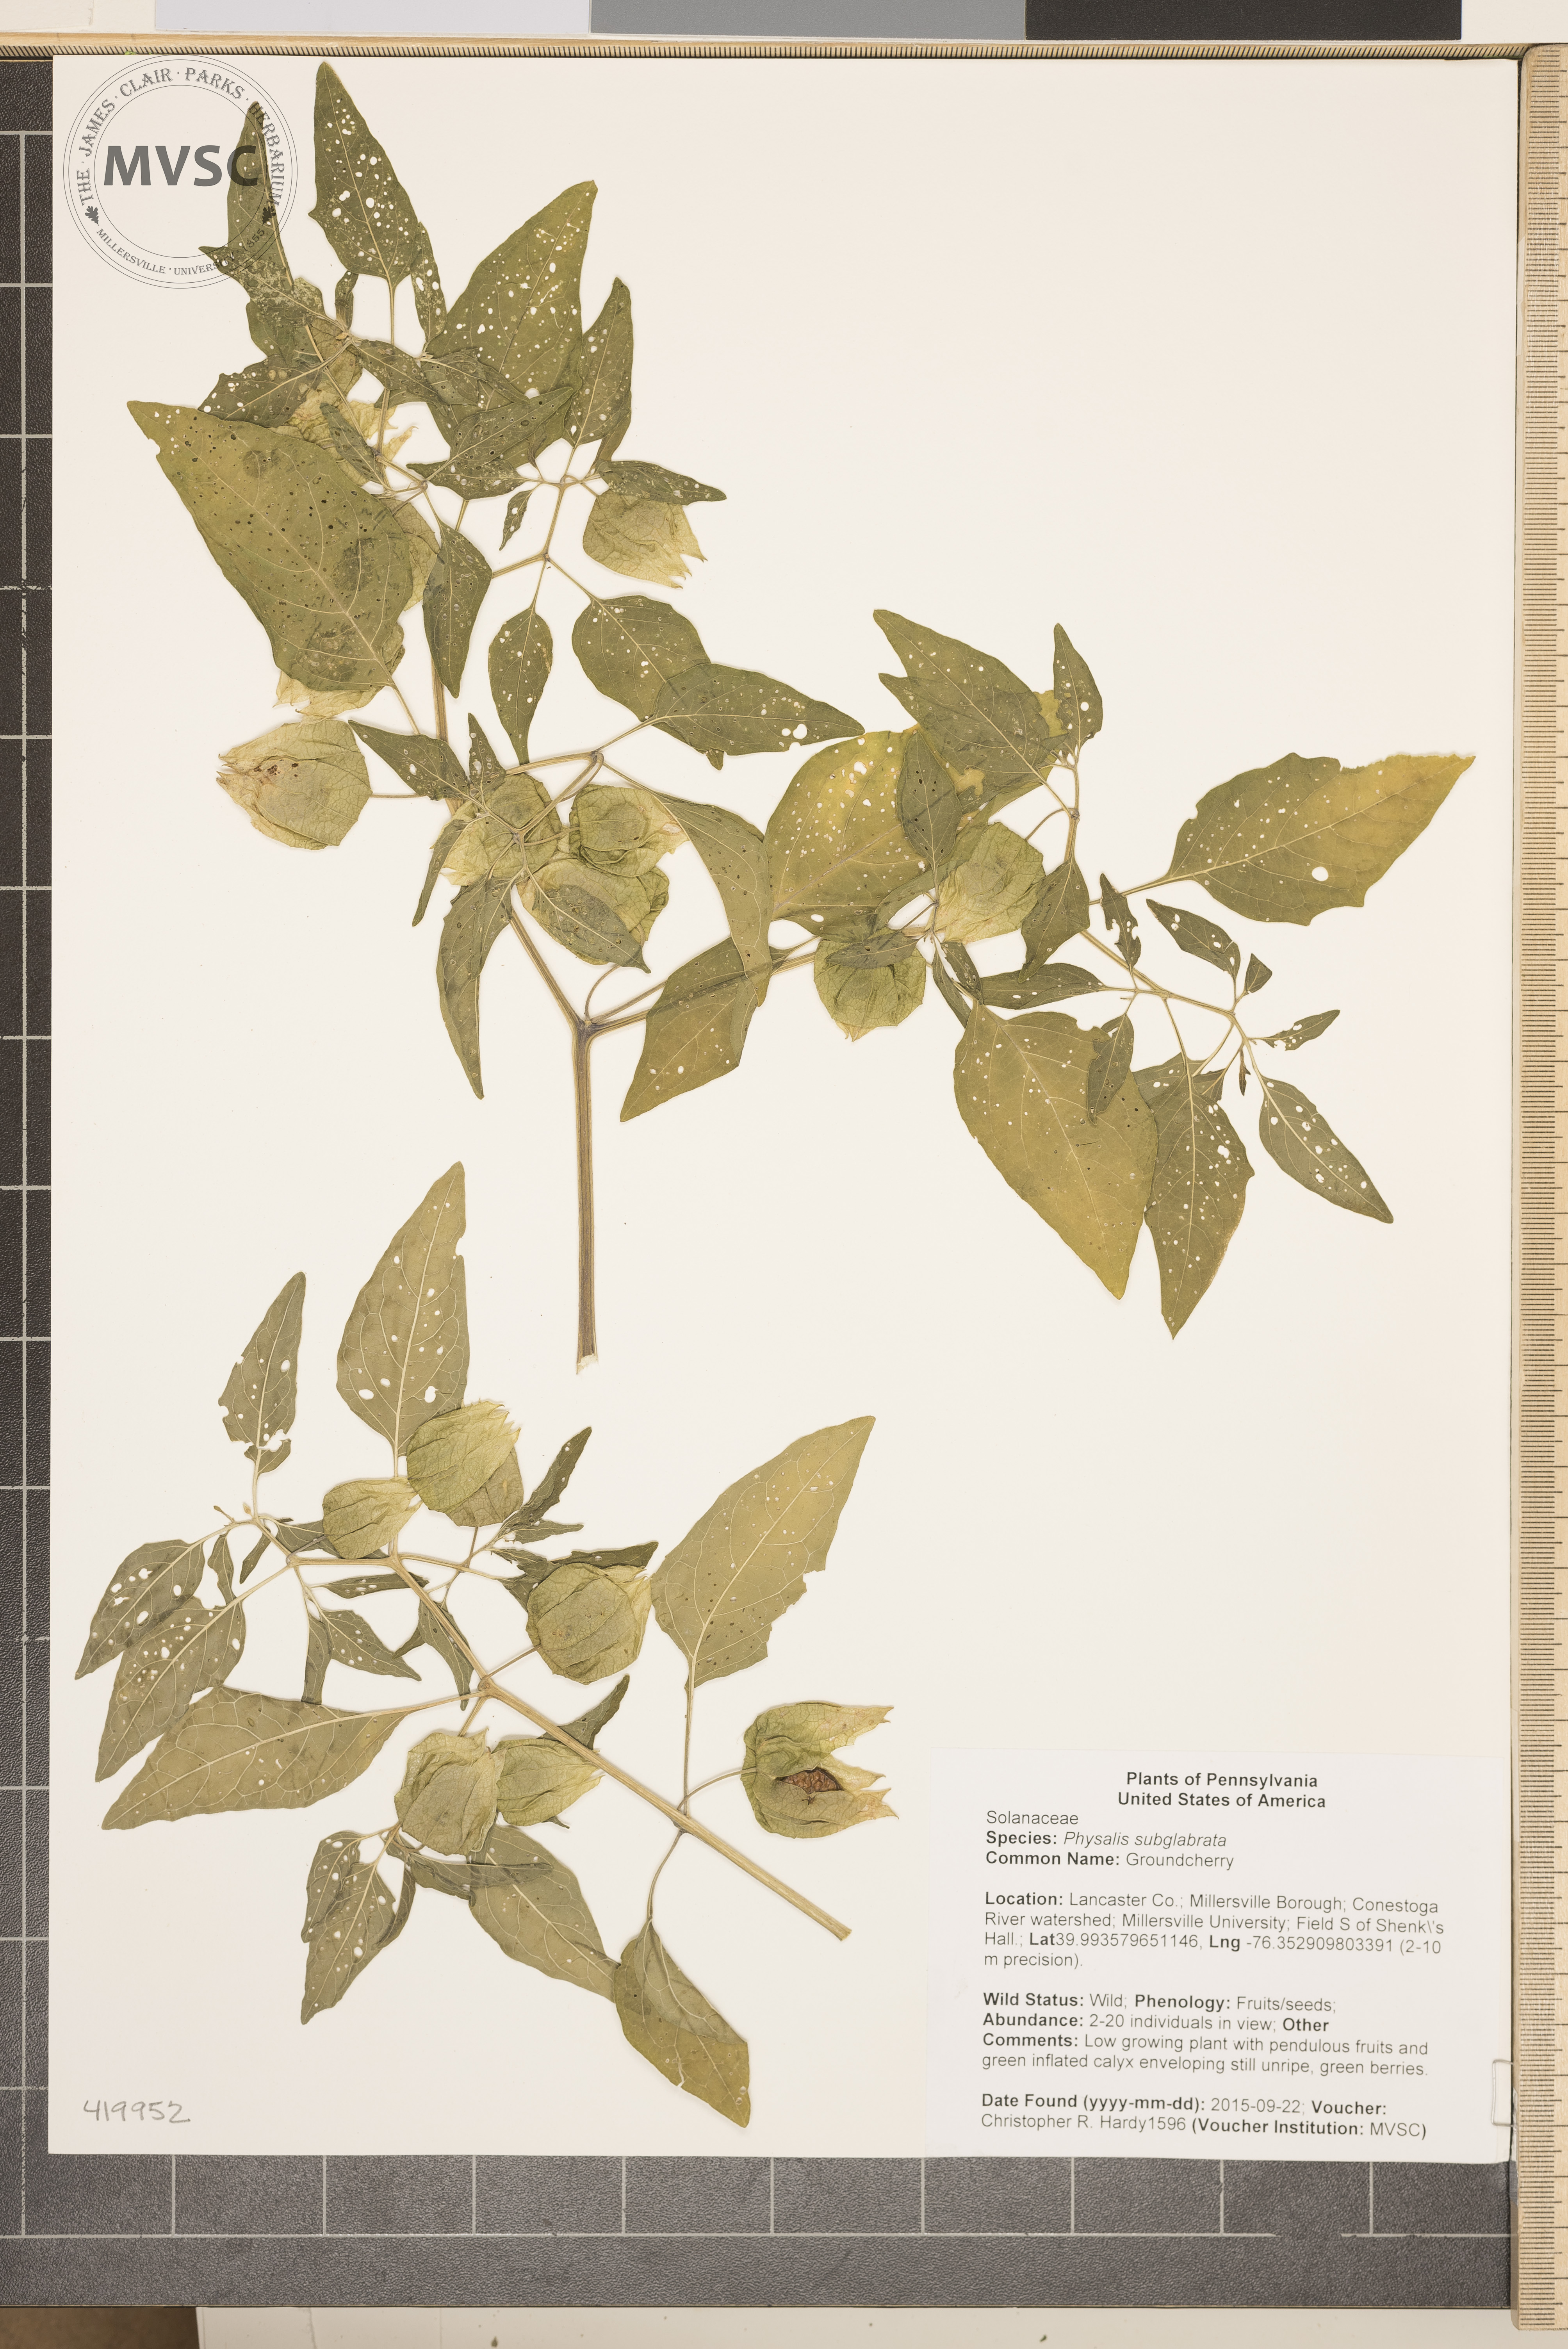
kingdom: Plantae
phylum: Tracheophyta
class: Magnoliopsida
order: Solanales
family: Solanaceae
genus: Physalis
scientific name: Physalis longifolia
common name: Groundcherry
